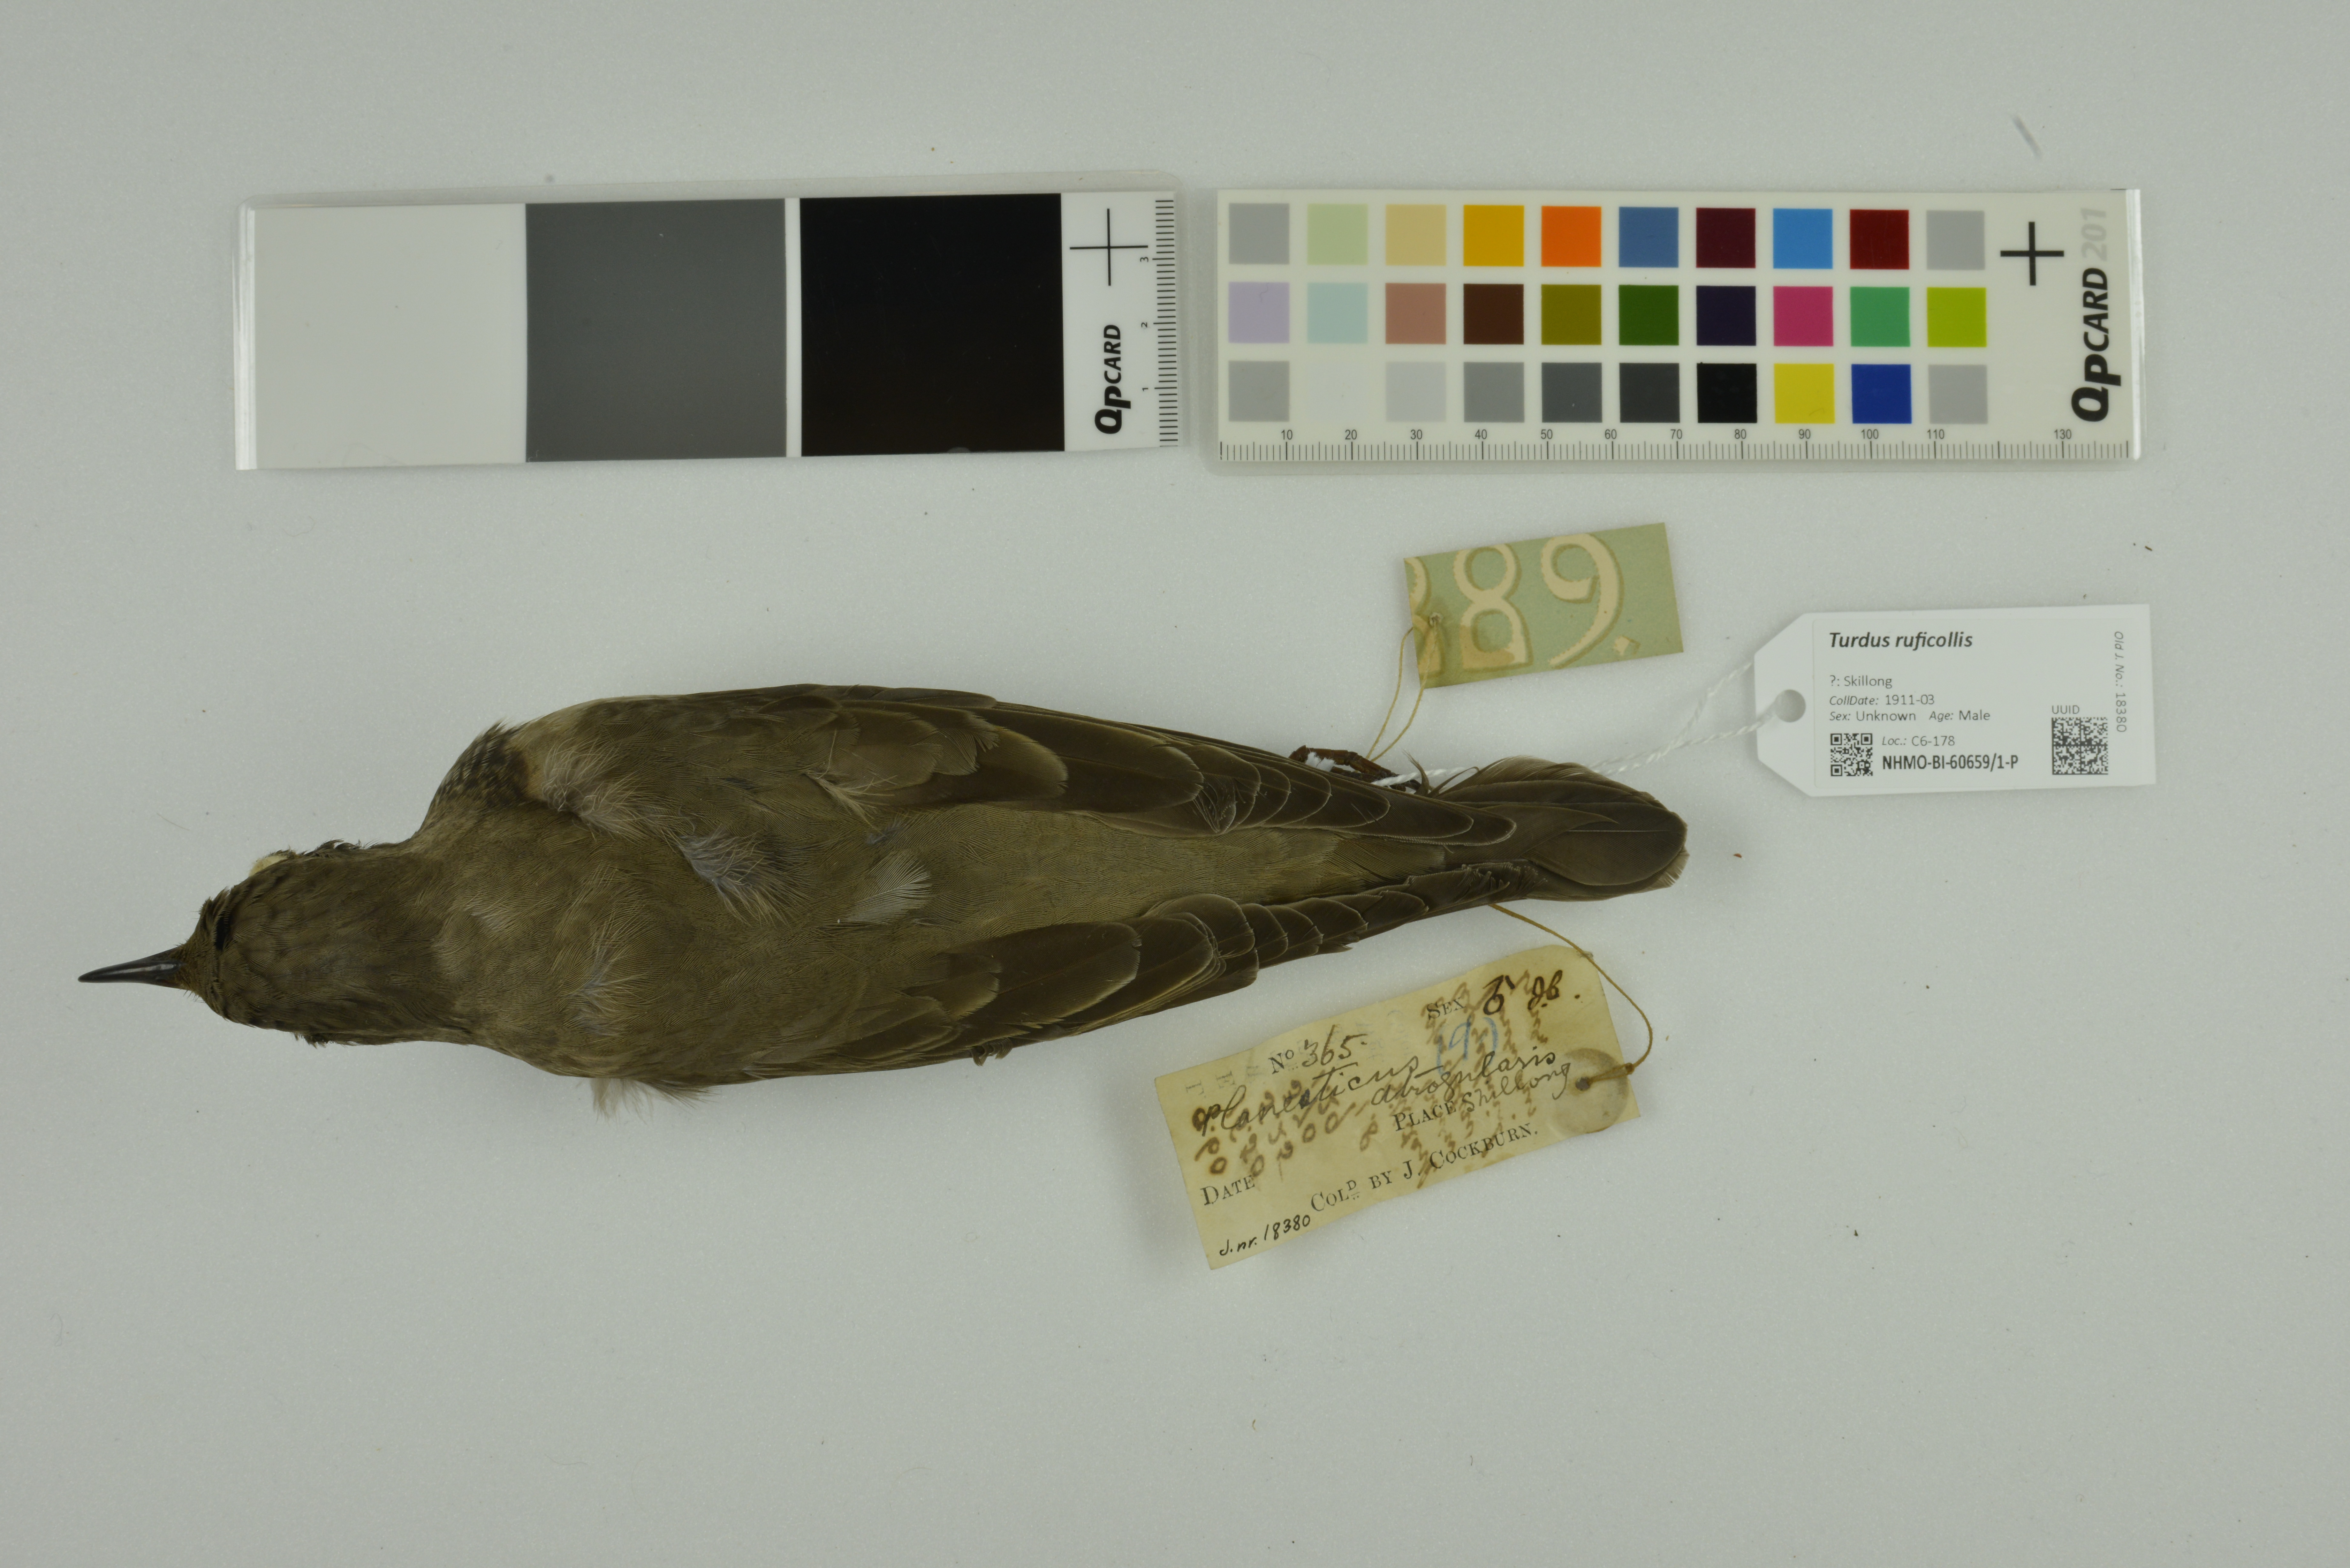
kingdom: Animalia
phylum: Chordata
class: Aves
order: Passeriformes
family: Turdidae
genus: Turdus
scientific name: Turdus ruficollis
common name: Red-throated thrush
